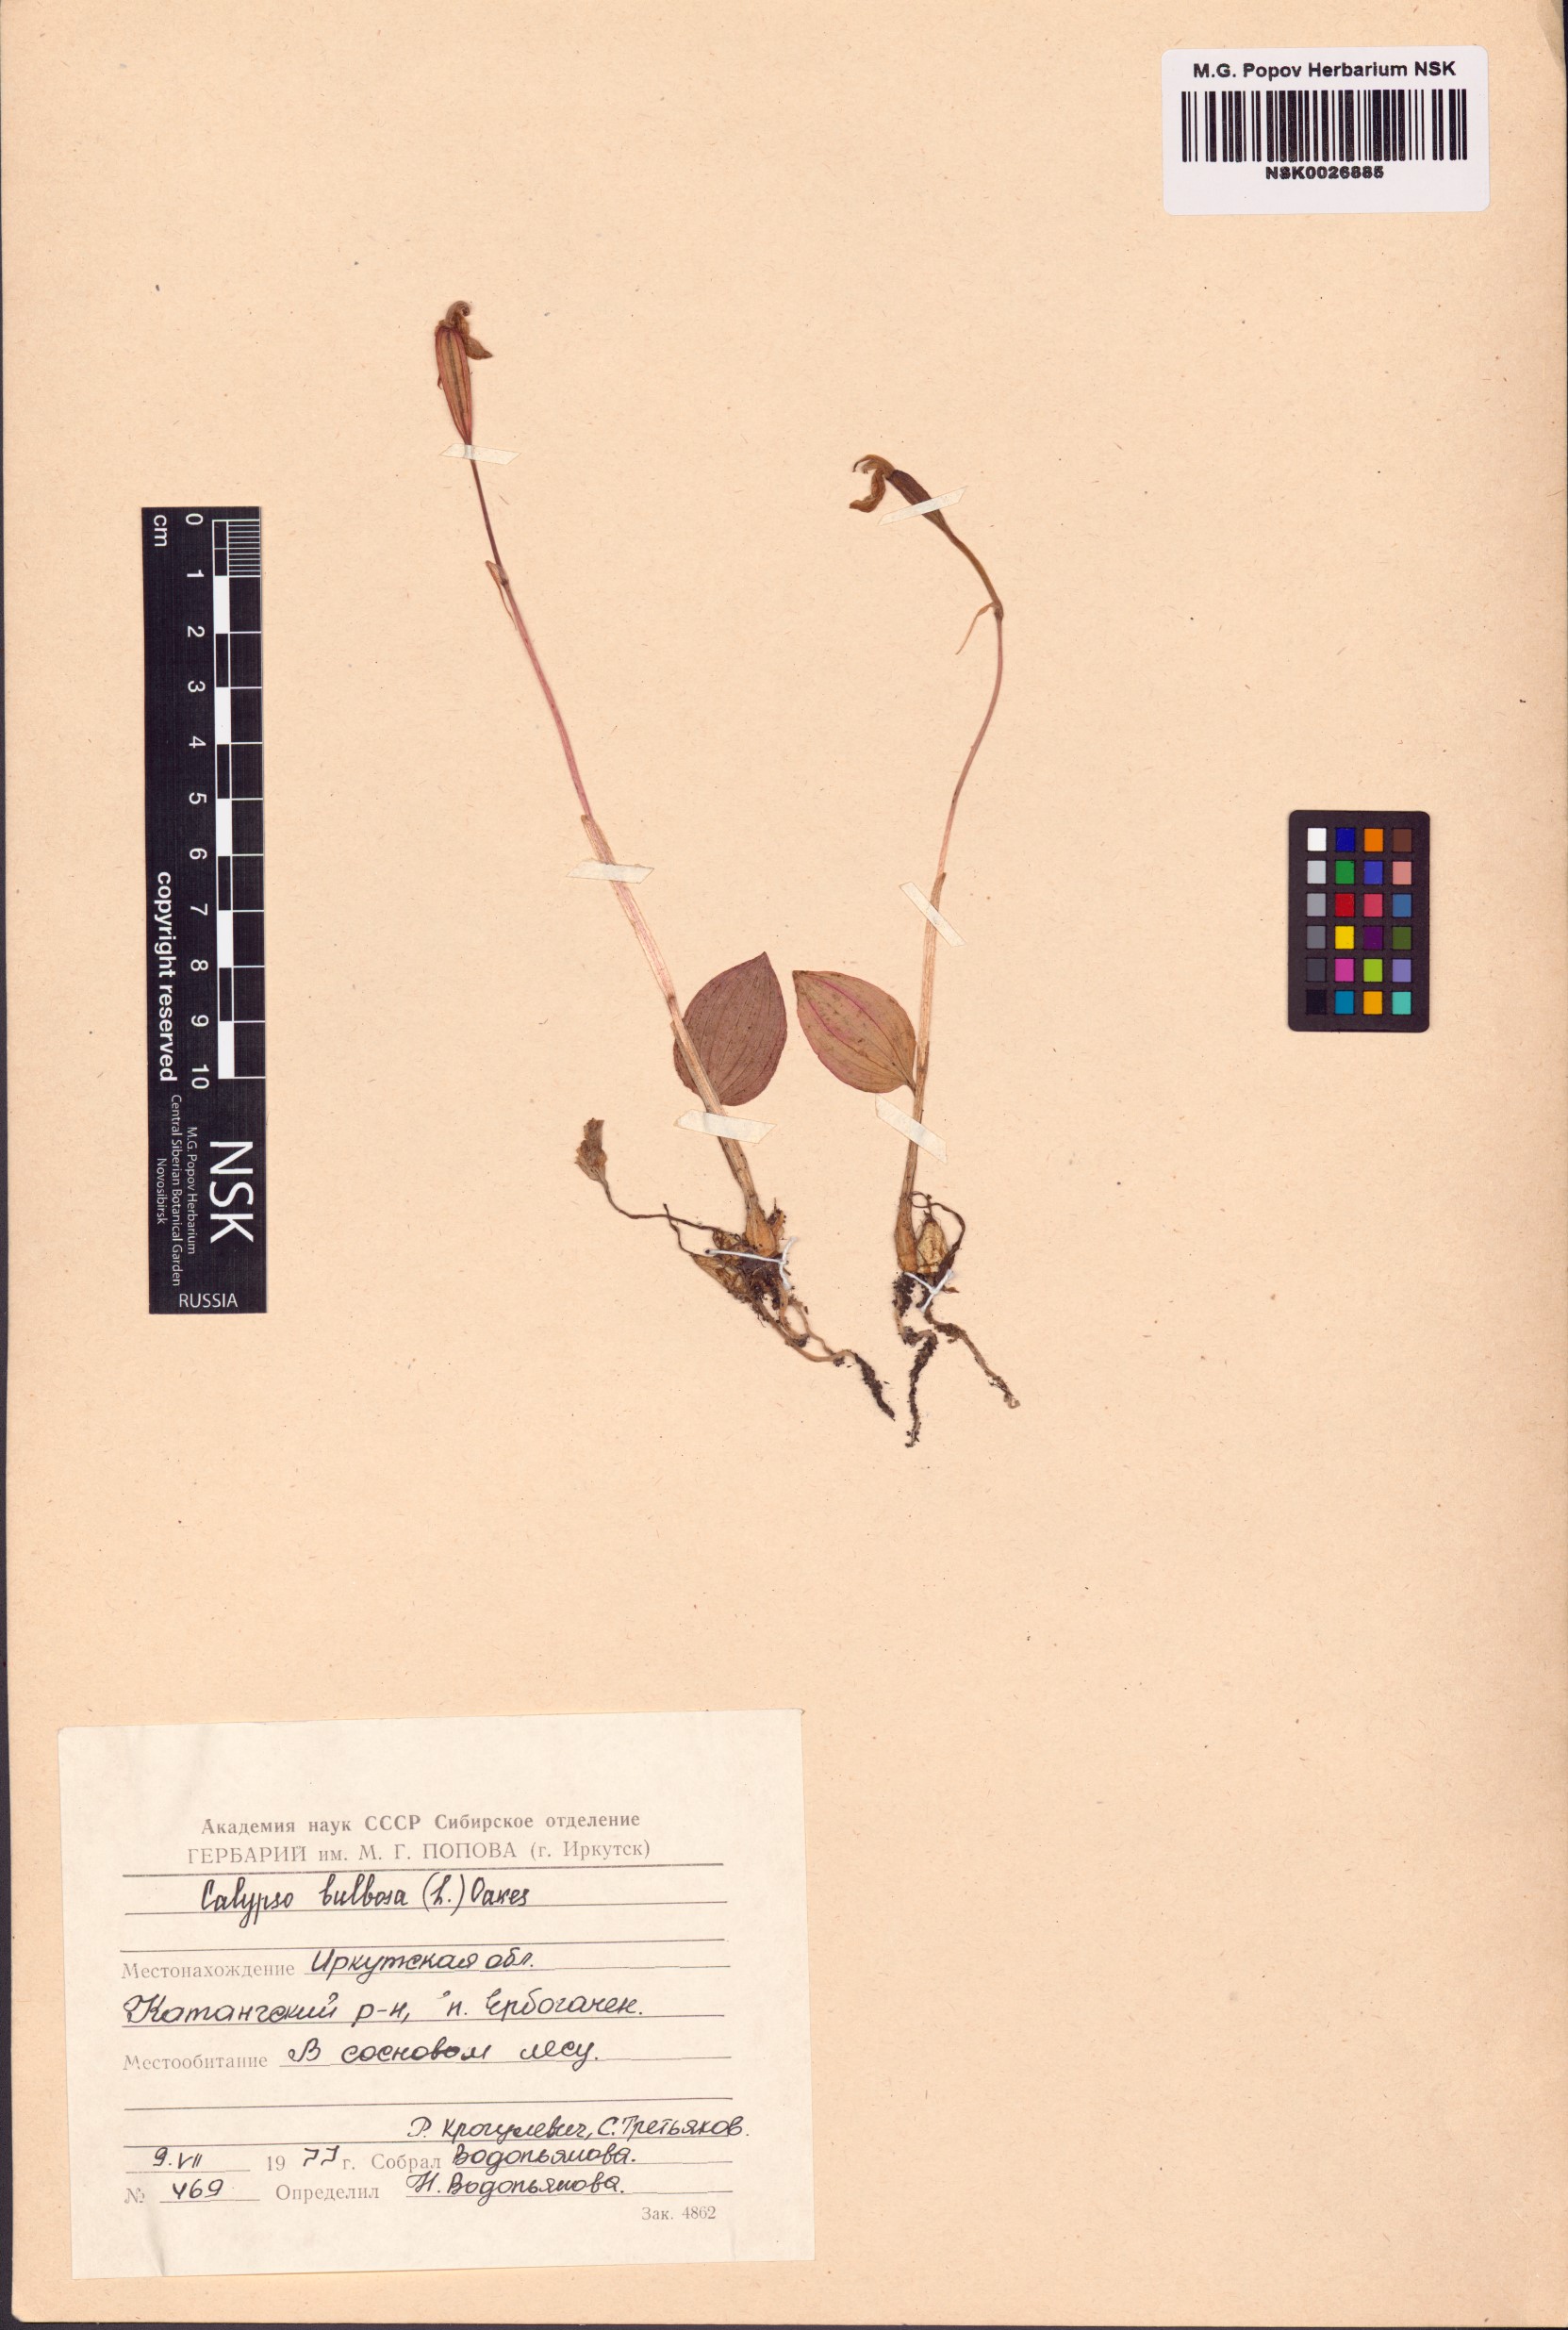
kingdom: Plantae
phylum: Tracheophyta
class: Liliopsida
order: Asparagales
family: Orchidaceae
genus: Calypso
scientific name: Calypso bulbosa
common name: Calypso
